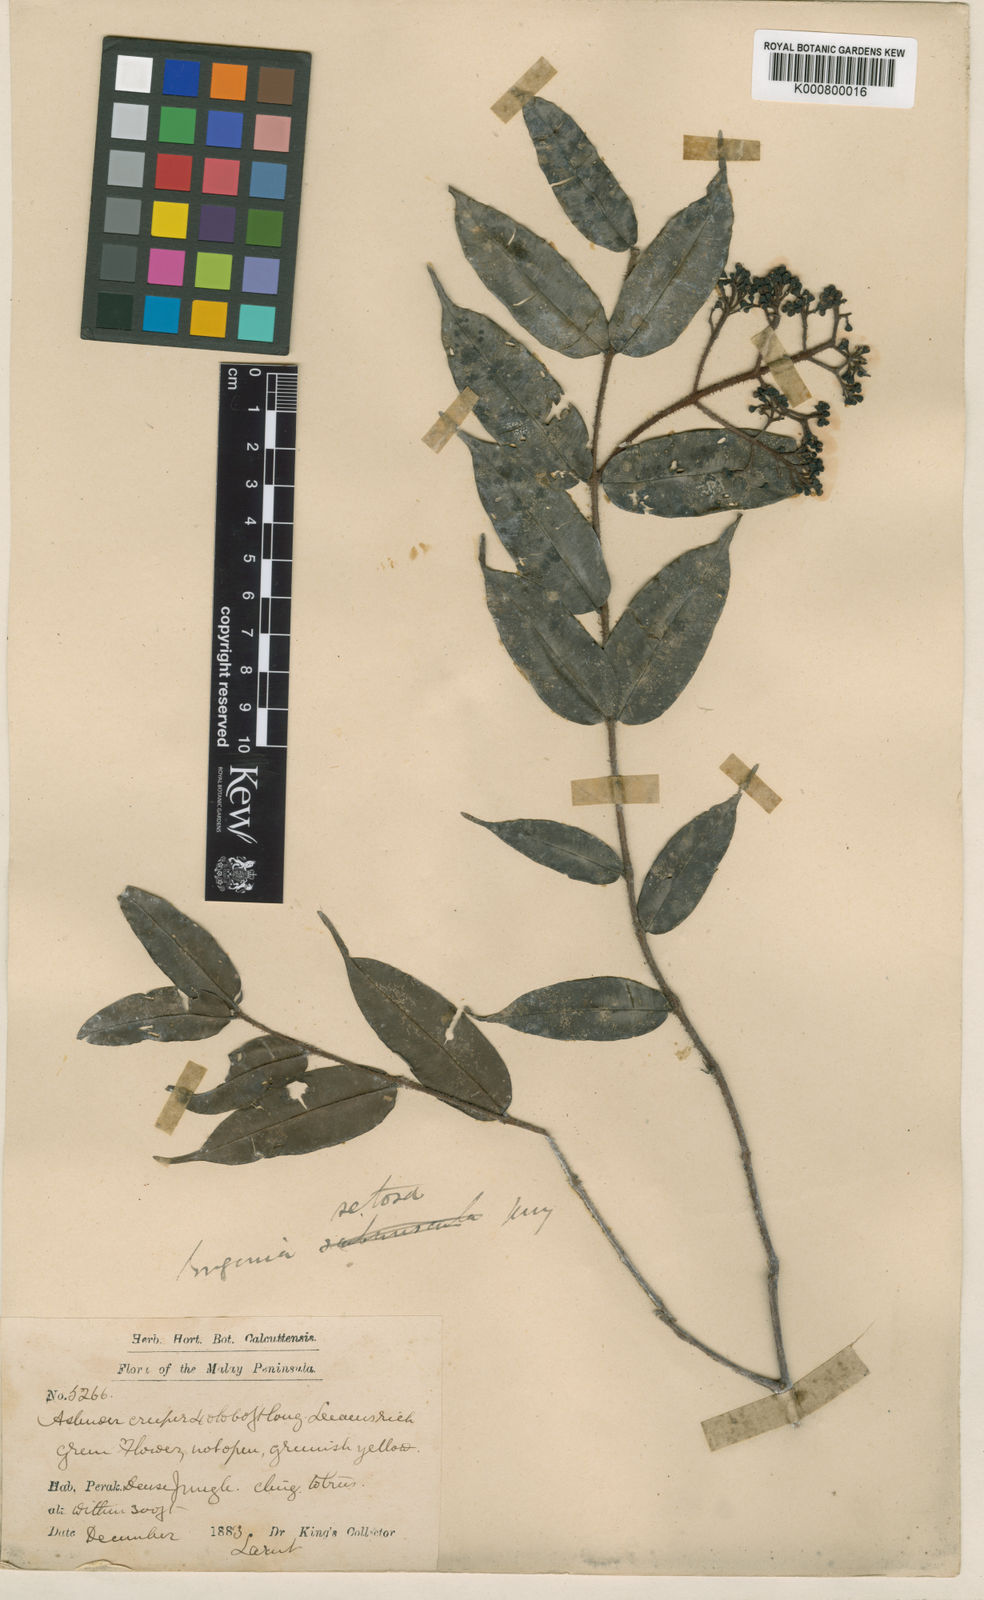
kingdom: Plantae
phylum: Tracheophyta
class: Magnoliopsida
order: Myrtales
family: Myrtaceae
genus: Syzygium
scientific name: Syzygium setosum
